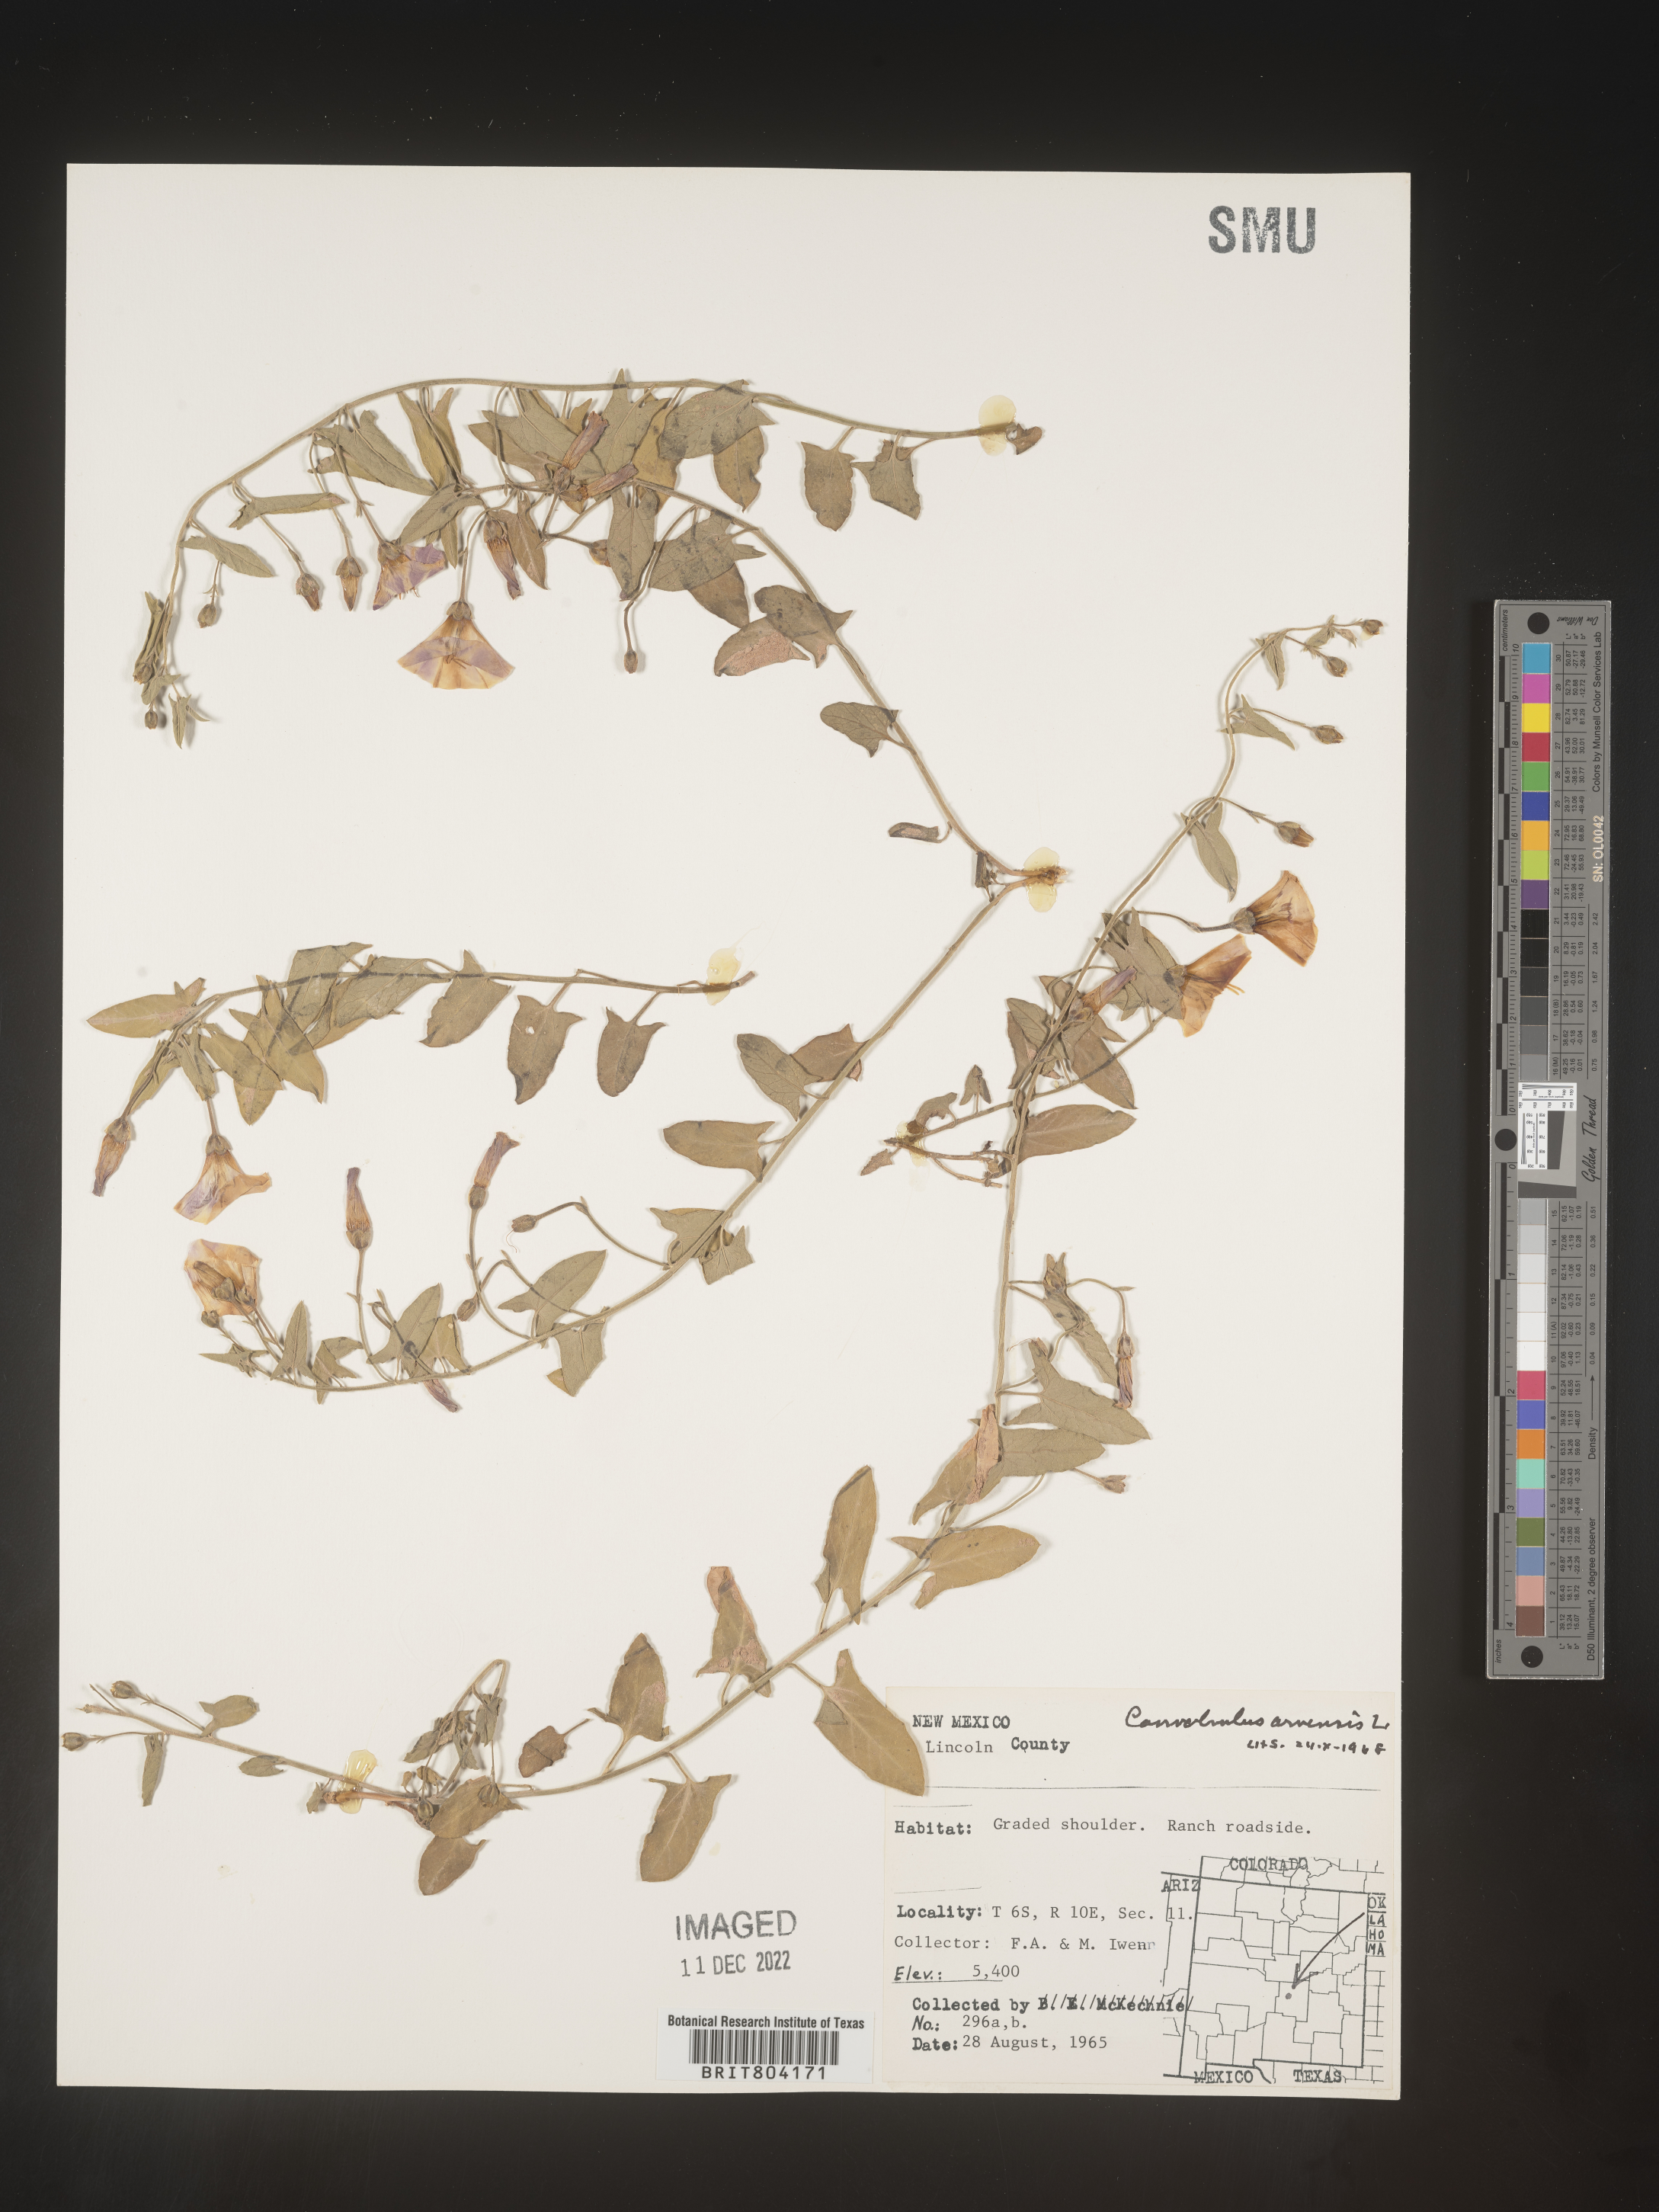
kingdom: Plantae
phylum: Tracheophyta
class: Magnoliopsida
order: Solanales
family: Convolvulaceae
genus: Convolvulus
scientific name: Convolvulus arvensis
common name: Field bindweed
